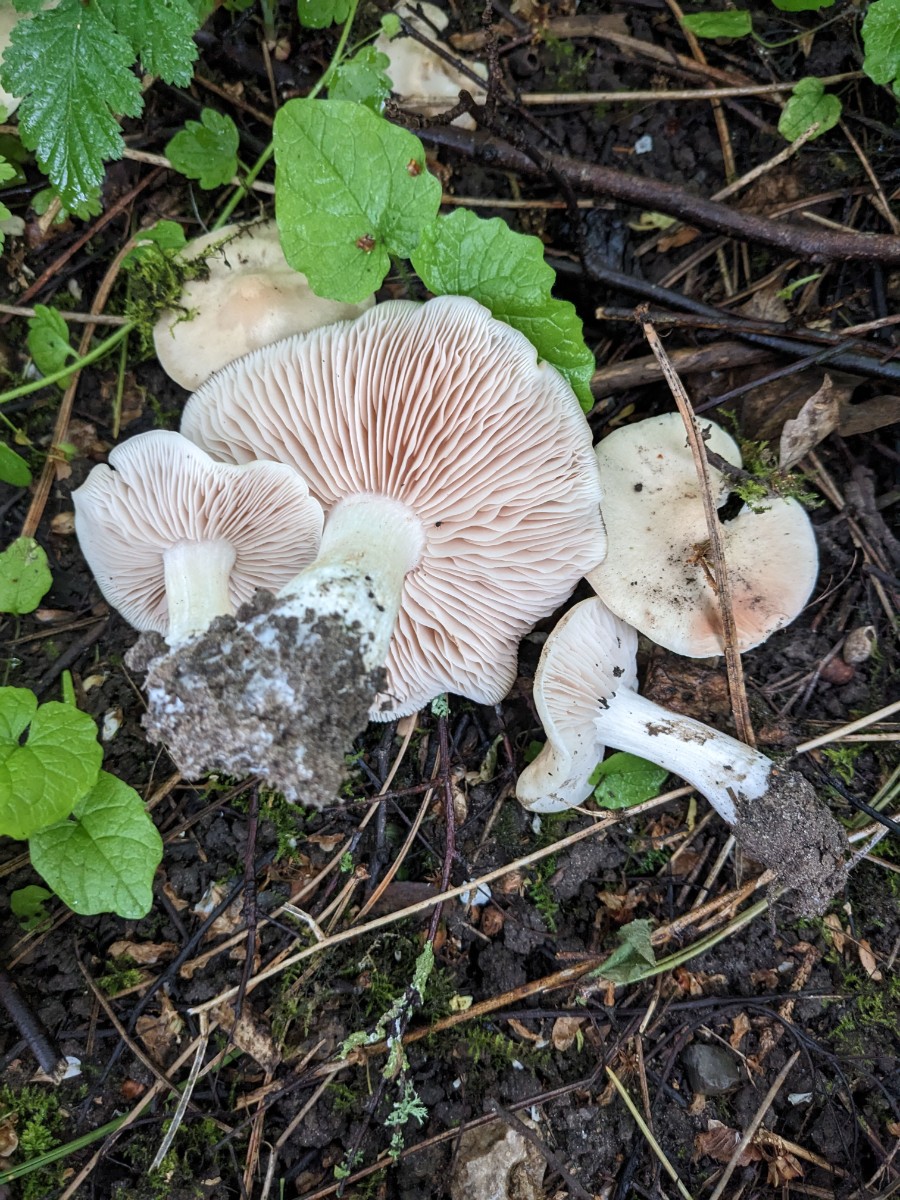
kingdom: Fungi
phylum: Basidiomycota
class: Agaricomycetes
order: Agaricales
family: Entolomataceae
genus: Entoloma
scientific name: Entoloma sepium
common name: slåen-rødblad
